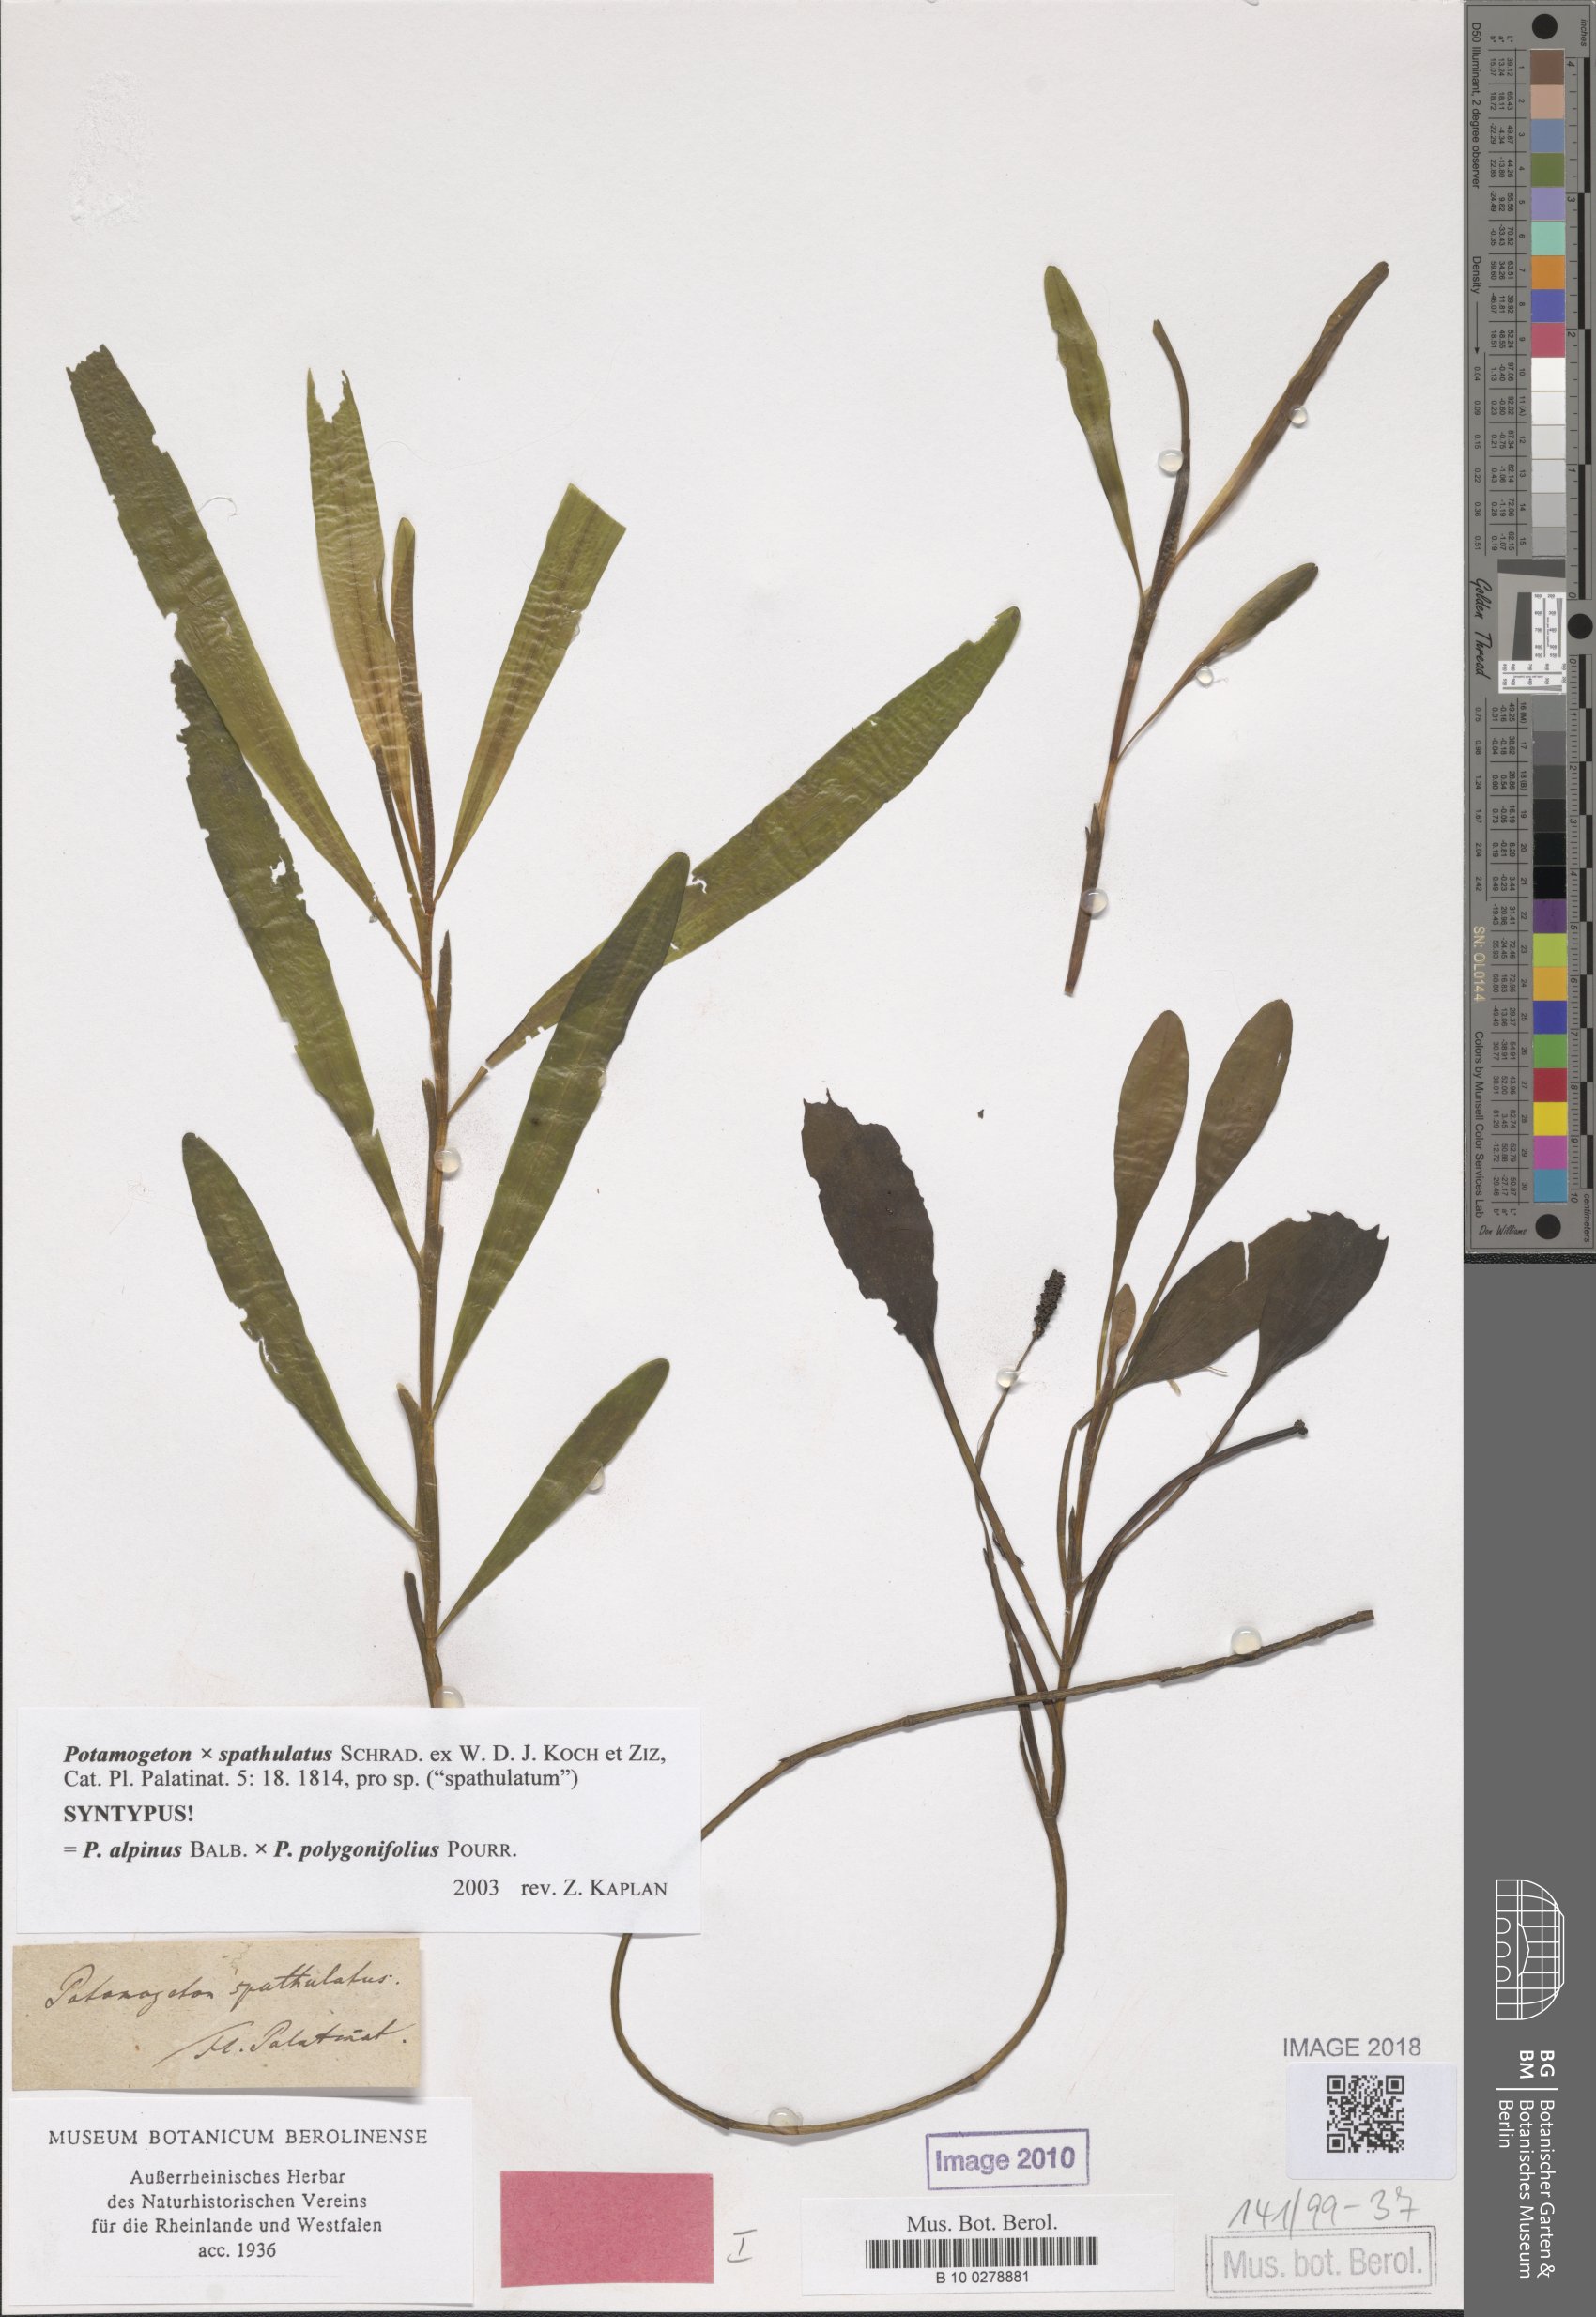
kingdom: Plantae
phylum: Tracheophyta
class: Liliopsida
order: Alismatales
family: Potamogetonaceae
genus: Potamogeton
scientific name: Potamogeton spathulatus
